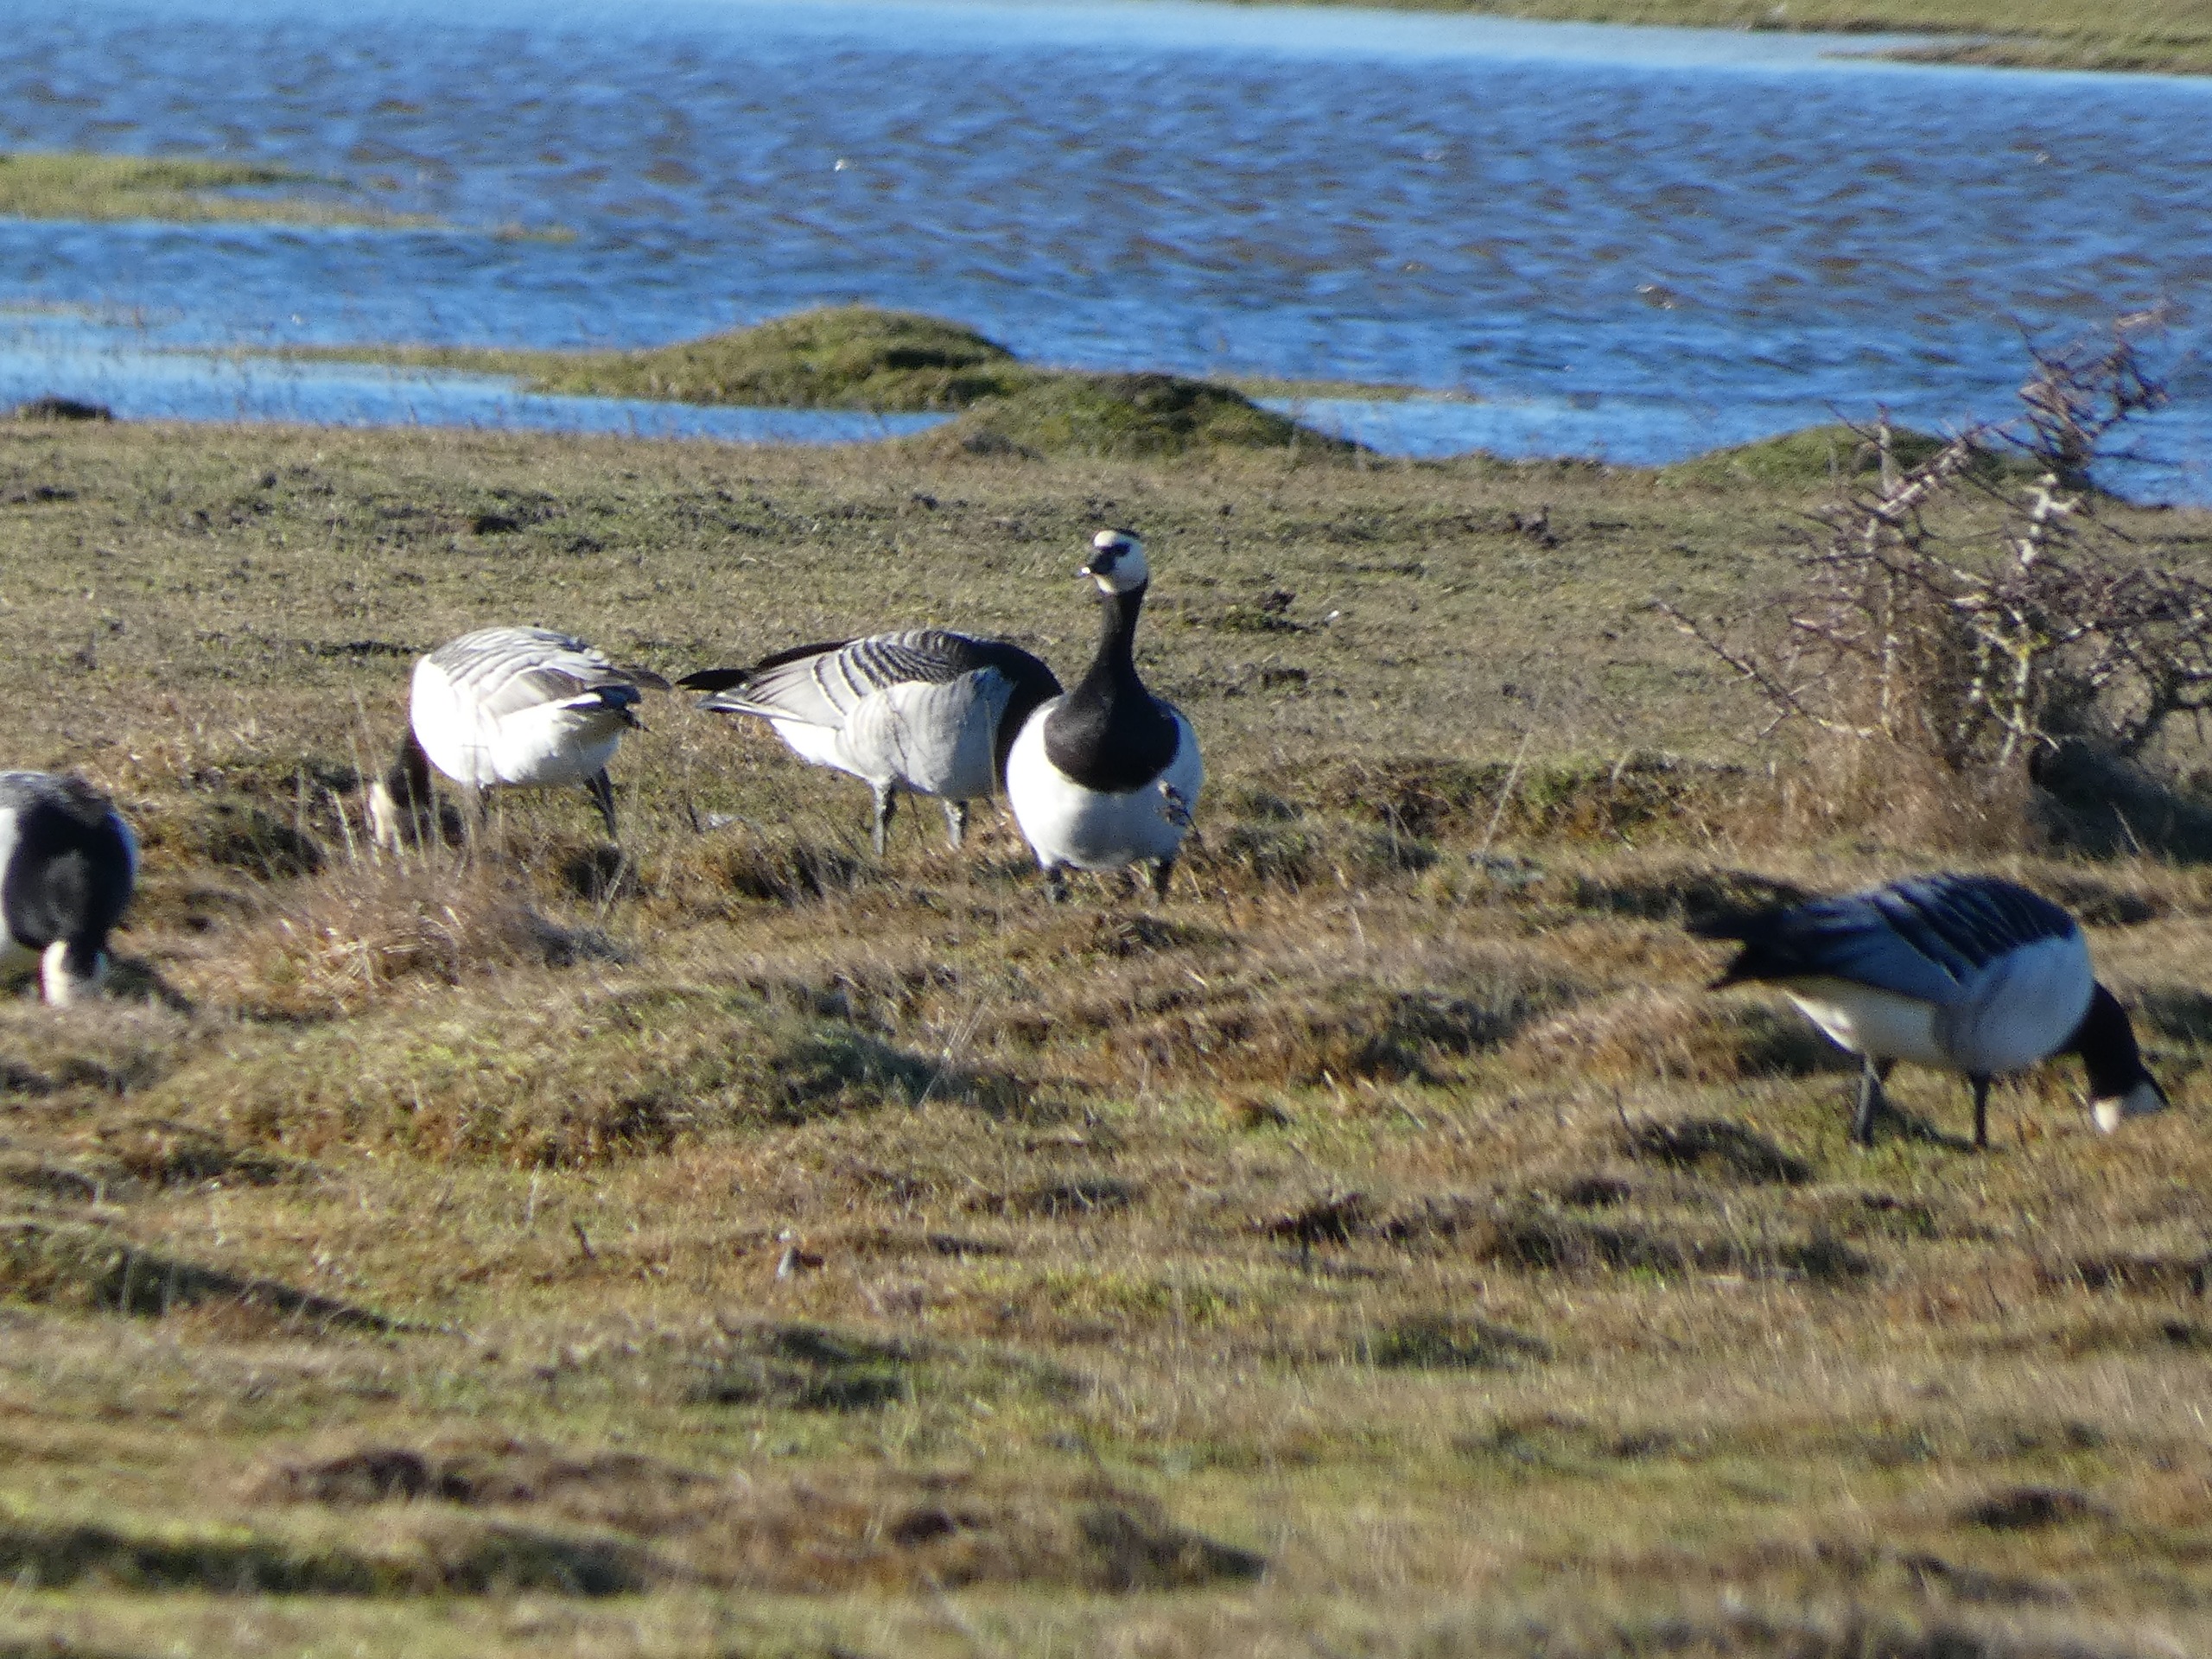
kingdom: Animalia
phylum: Chordata
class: Aves
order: Anseriformes
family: Anatidae
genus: Branta
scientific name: Branta leucopsis
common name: Bramgås
